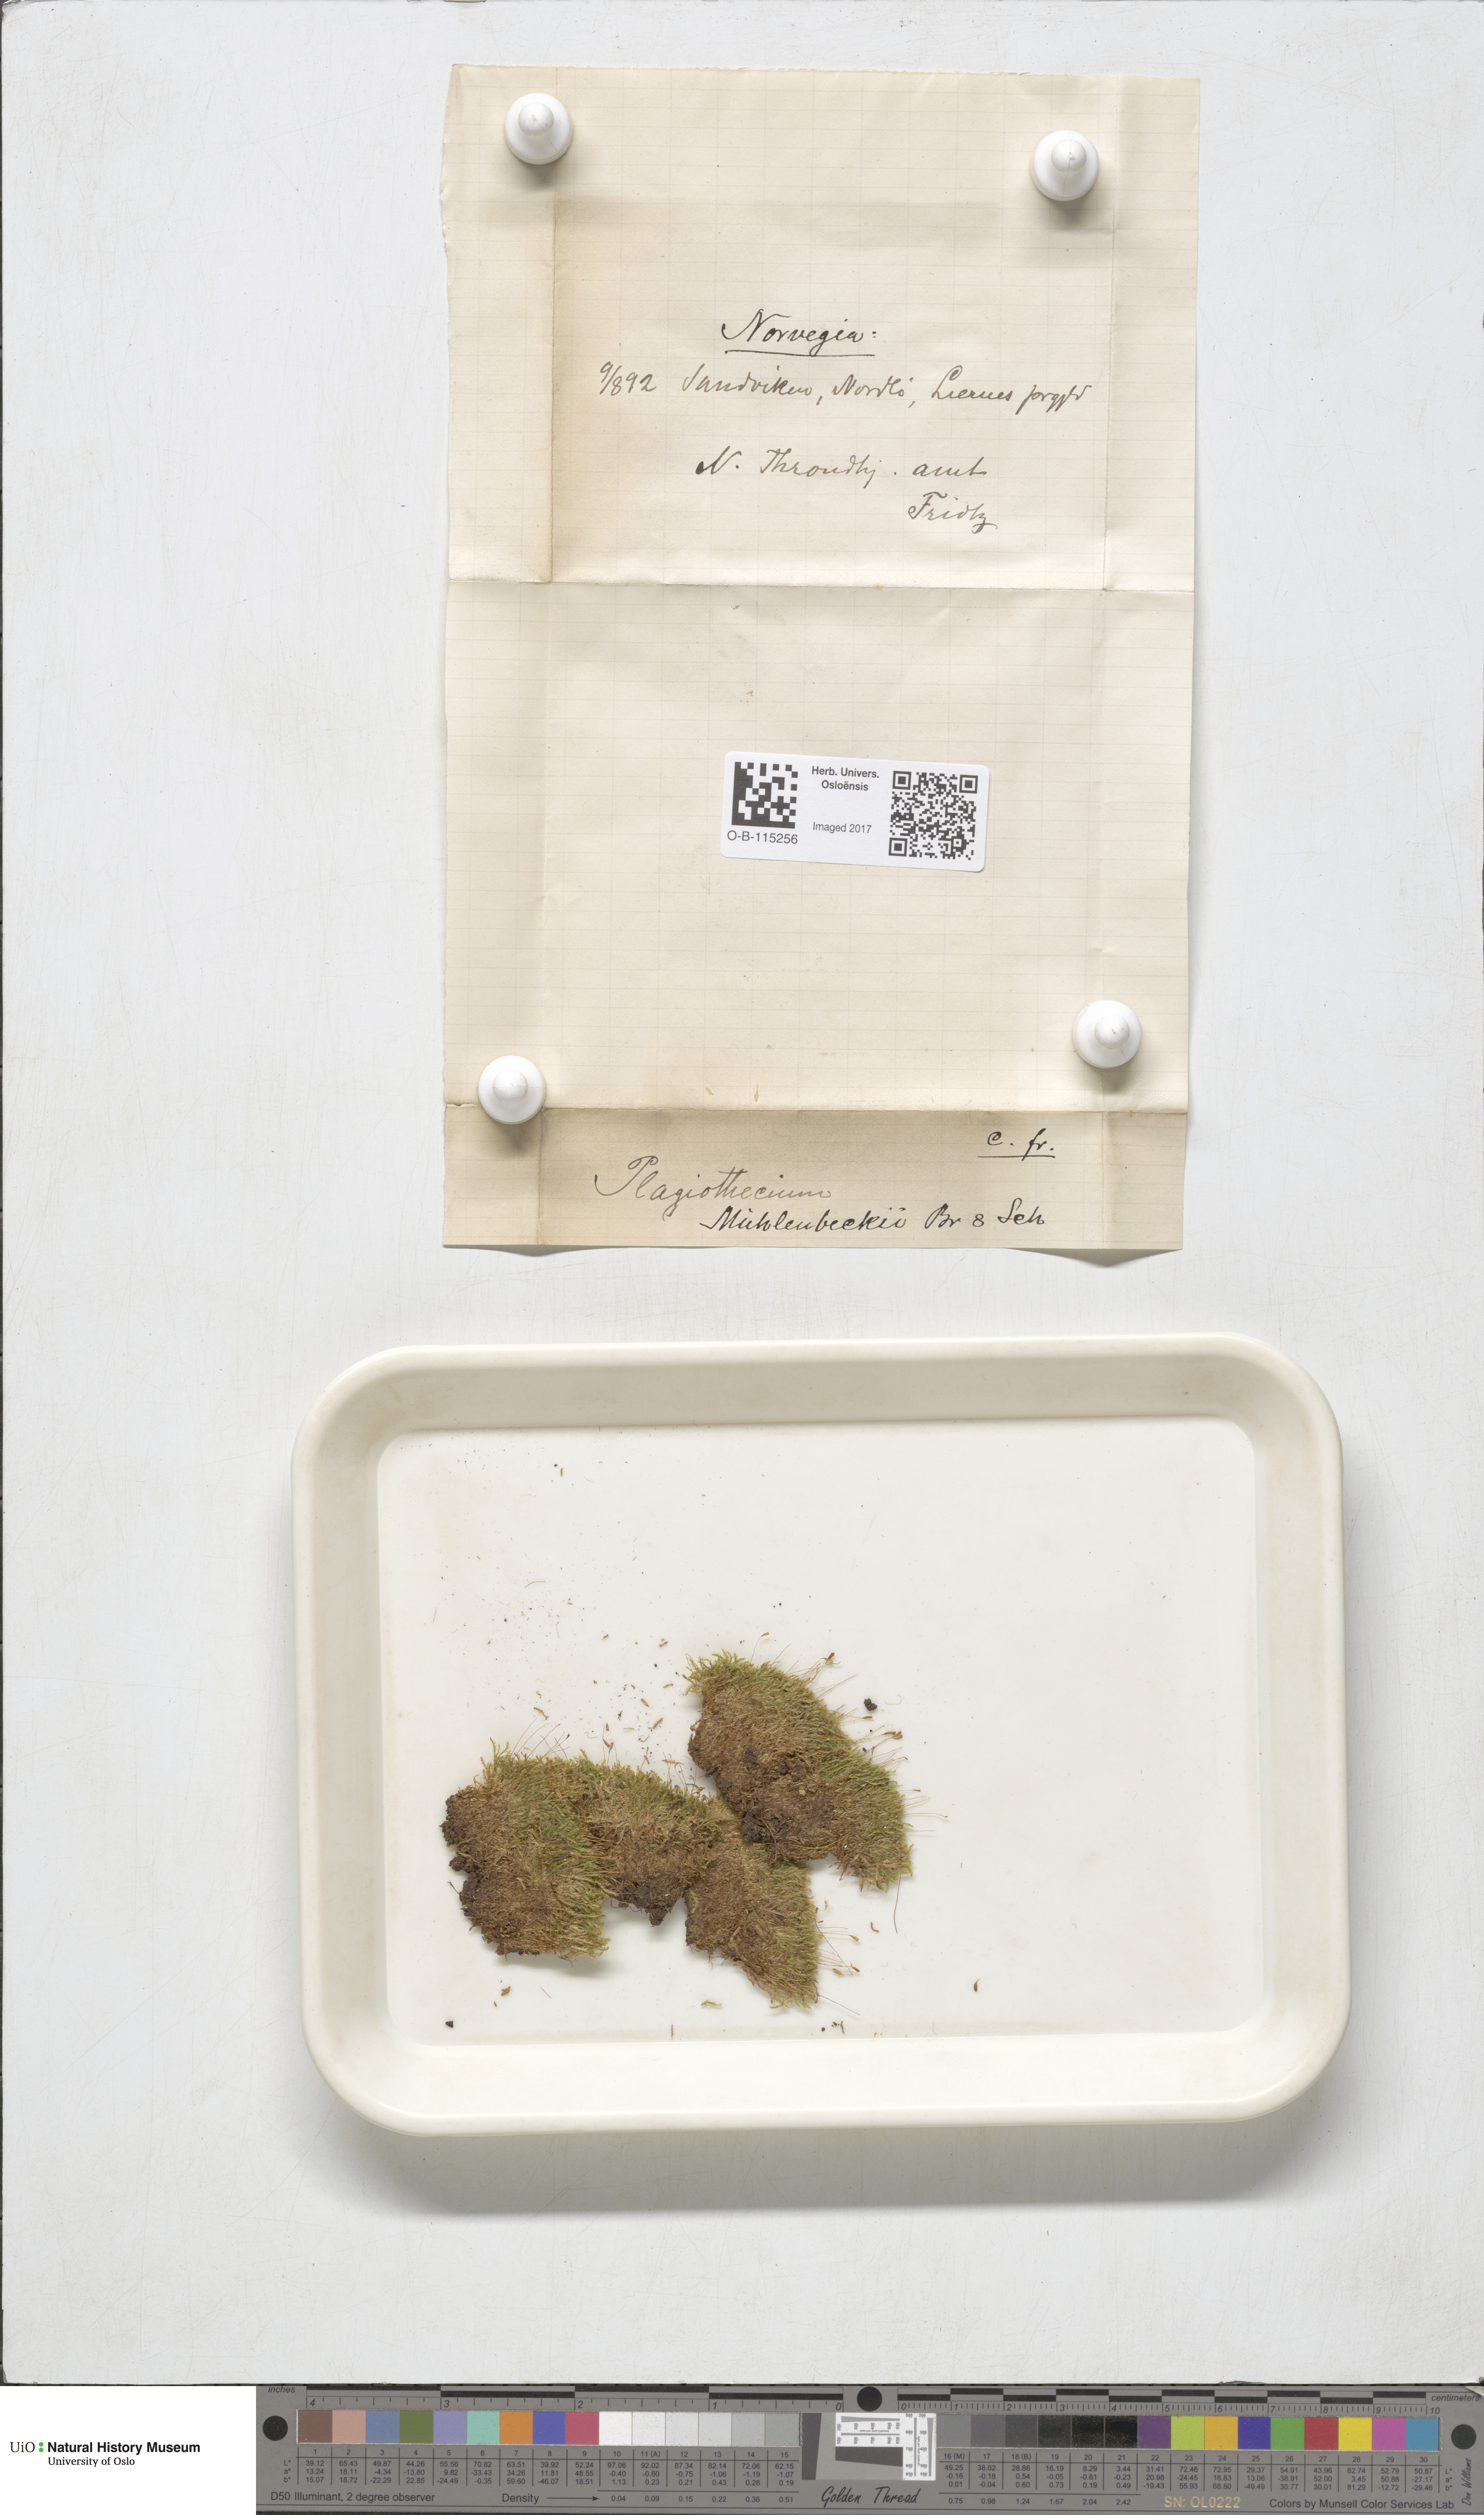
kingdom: Plantae
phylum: Bryophyta
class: Bryopsida
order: Hypnales
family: Plagiotheciaceae
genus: Herzogiella
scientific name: Herzogiella striatella
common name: Muhlenbeck's feather-moss
